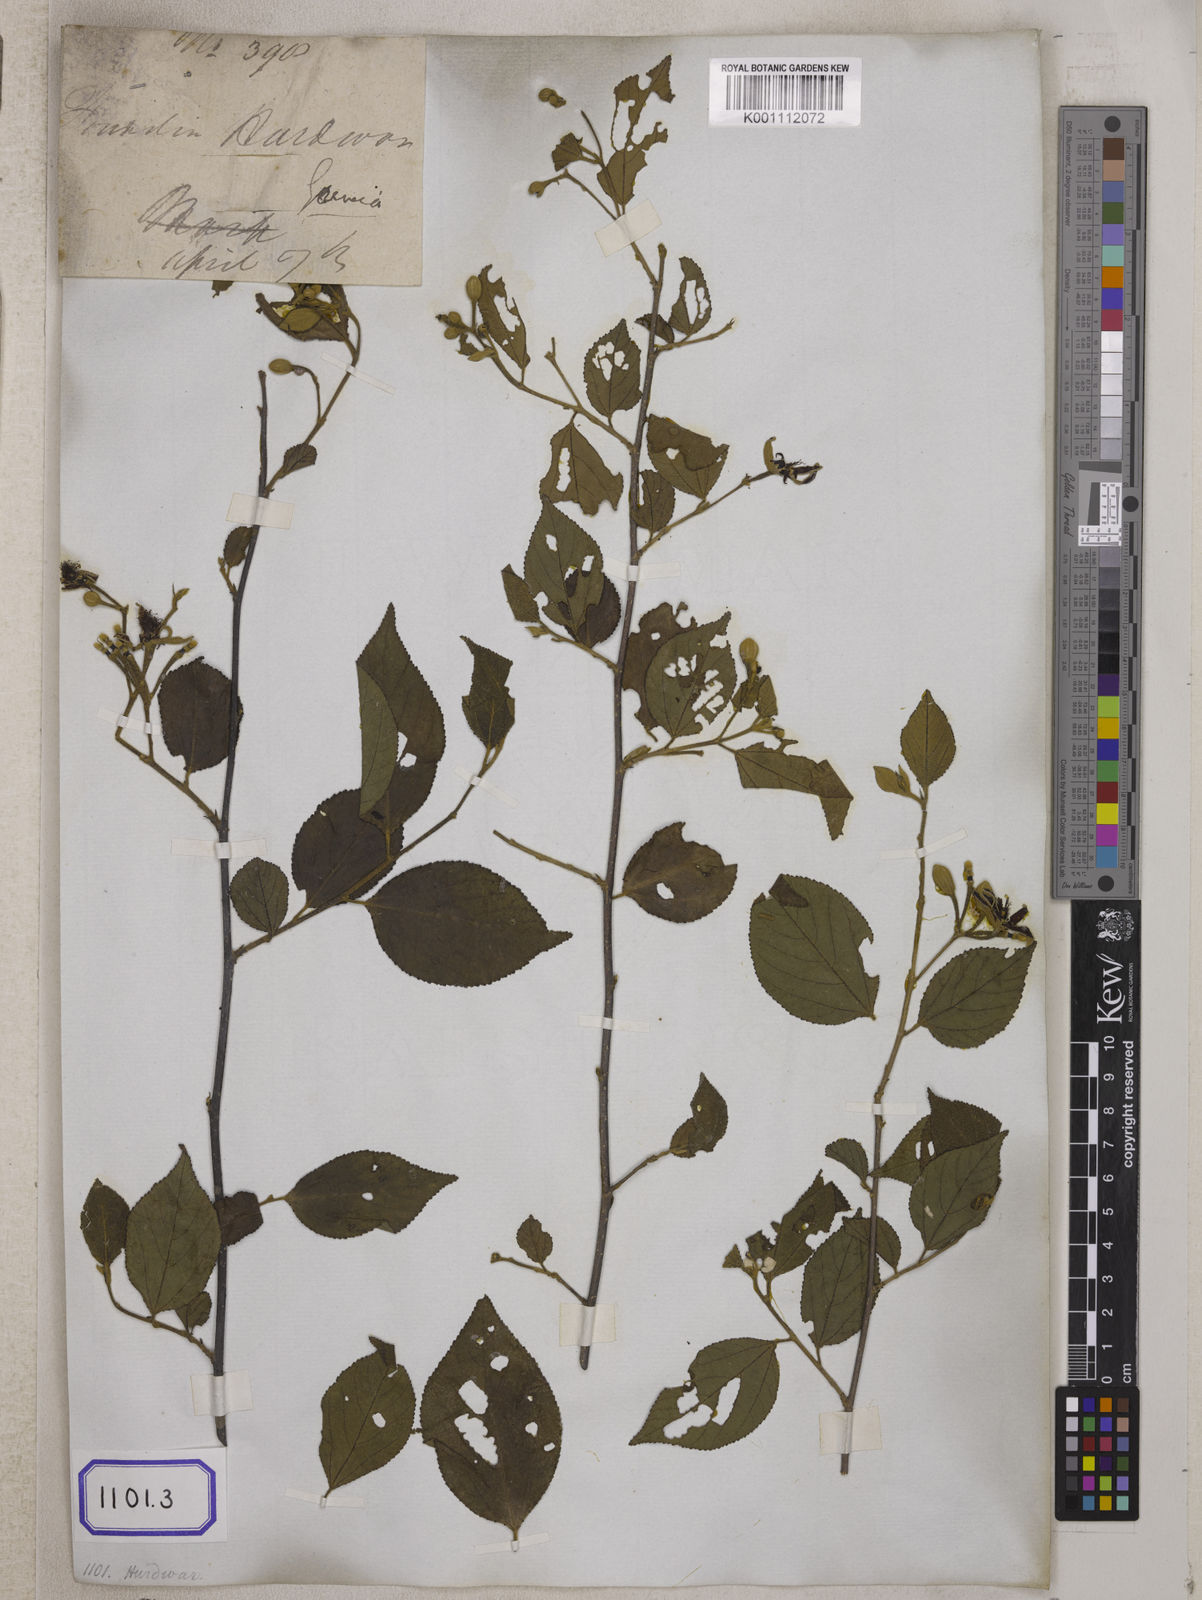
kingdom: Plantae
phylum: Tracheophyta
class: Magnoliopsida
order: Malvales
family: Malvaceae
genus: Grewia
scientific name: Grewia oppositifolia
